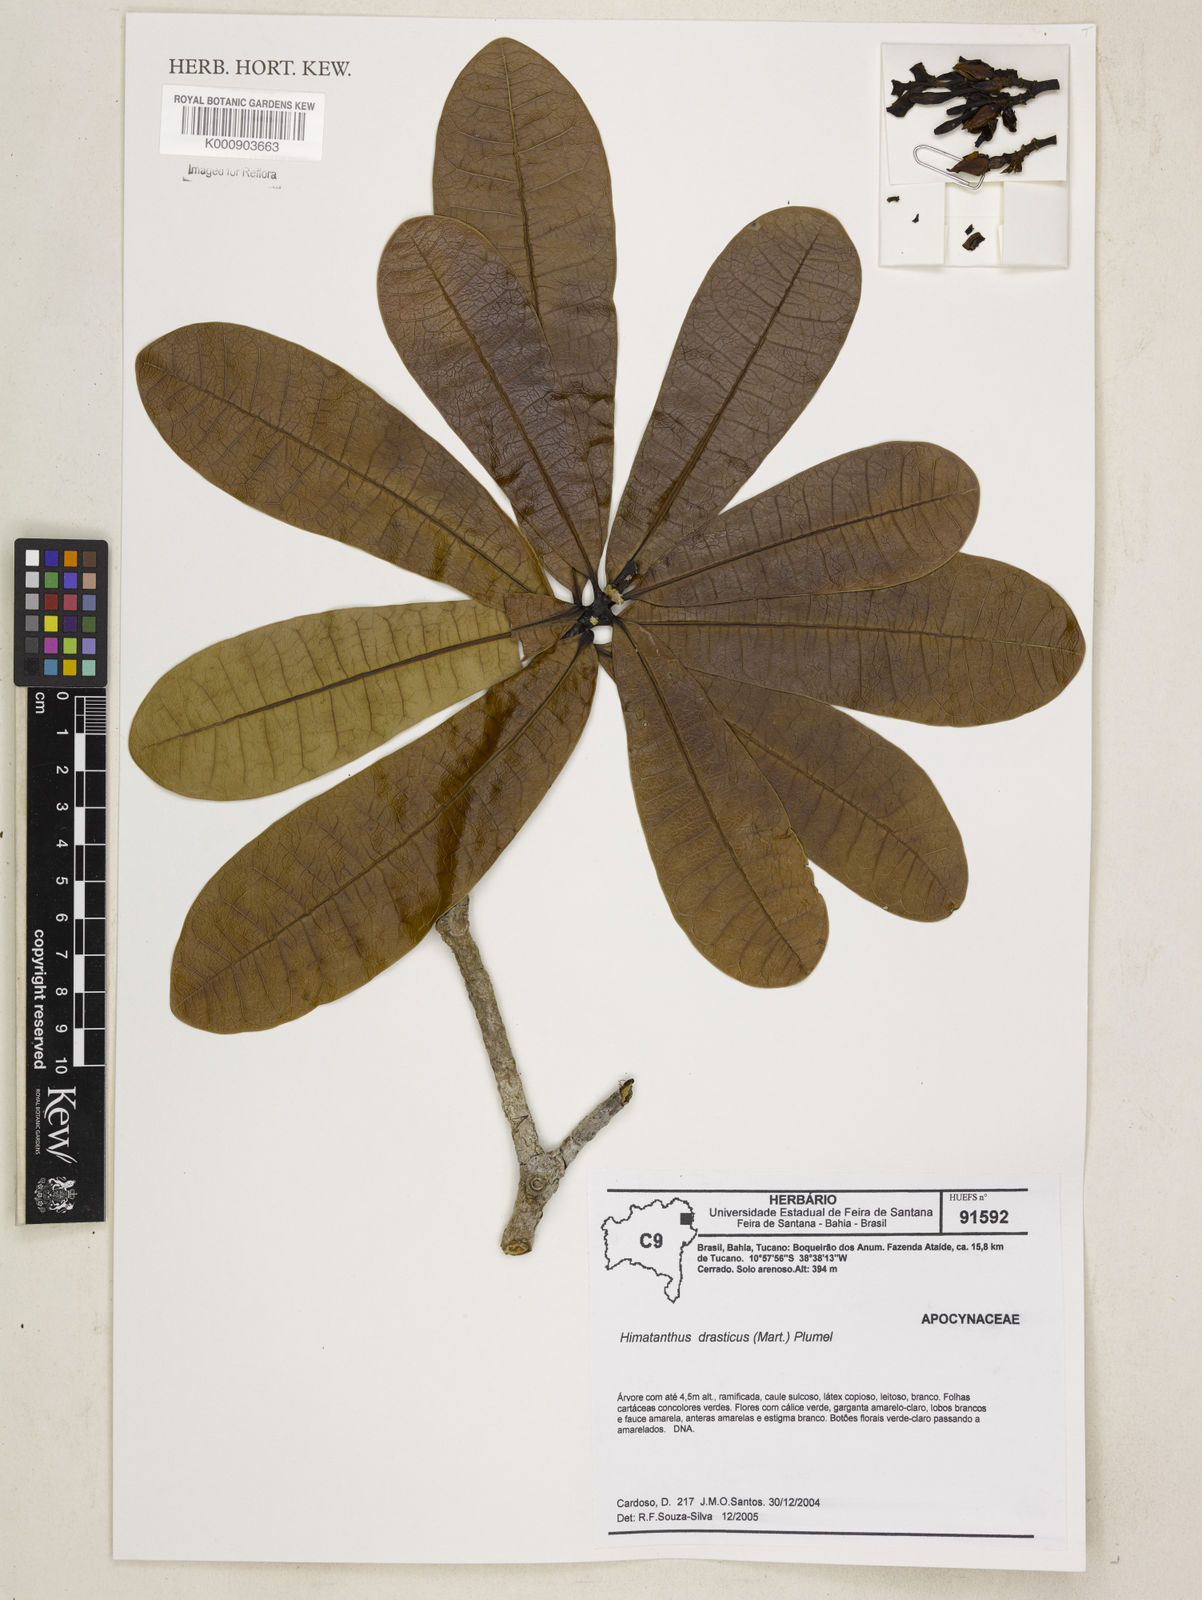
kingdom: Plantae
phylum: Tracheophyta
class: Magnoliopsida
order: Gentianales
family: Apocynaceae
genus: Himatanthus
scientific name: Himatanthus drasticus
